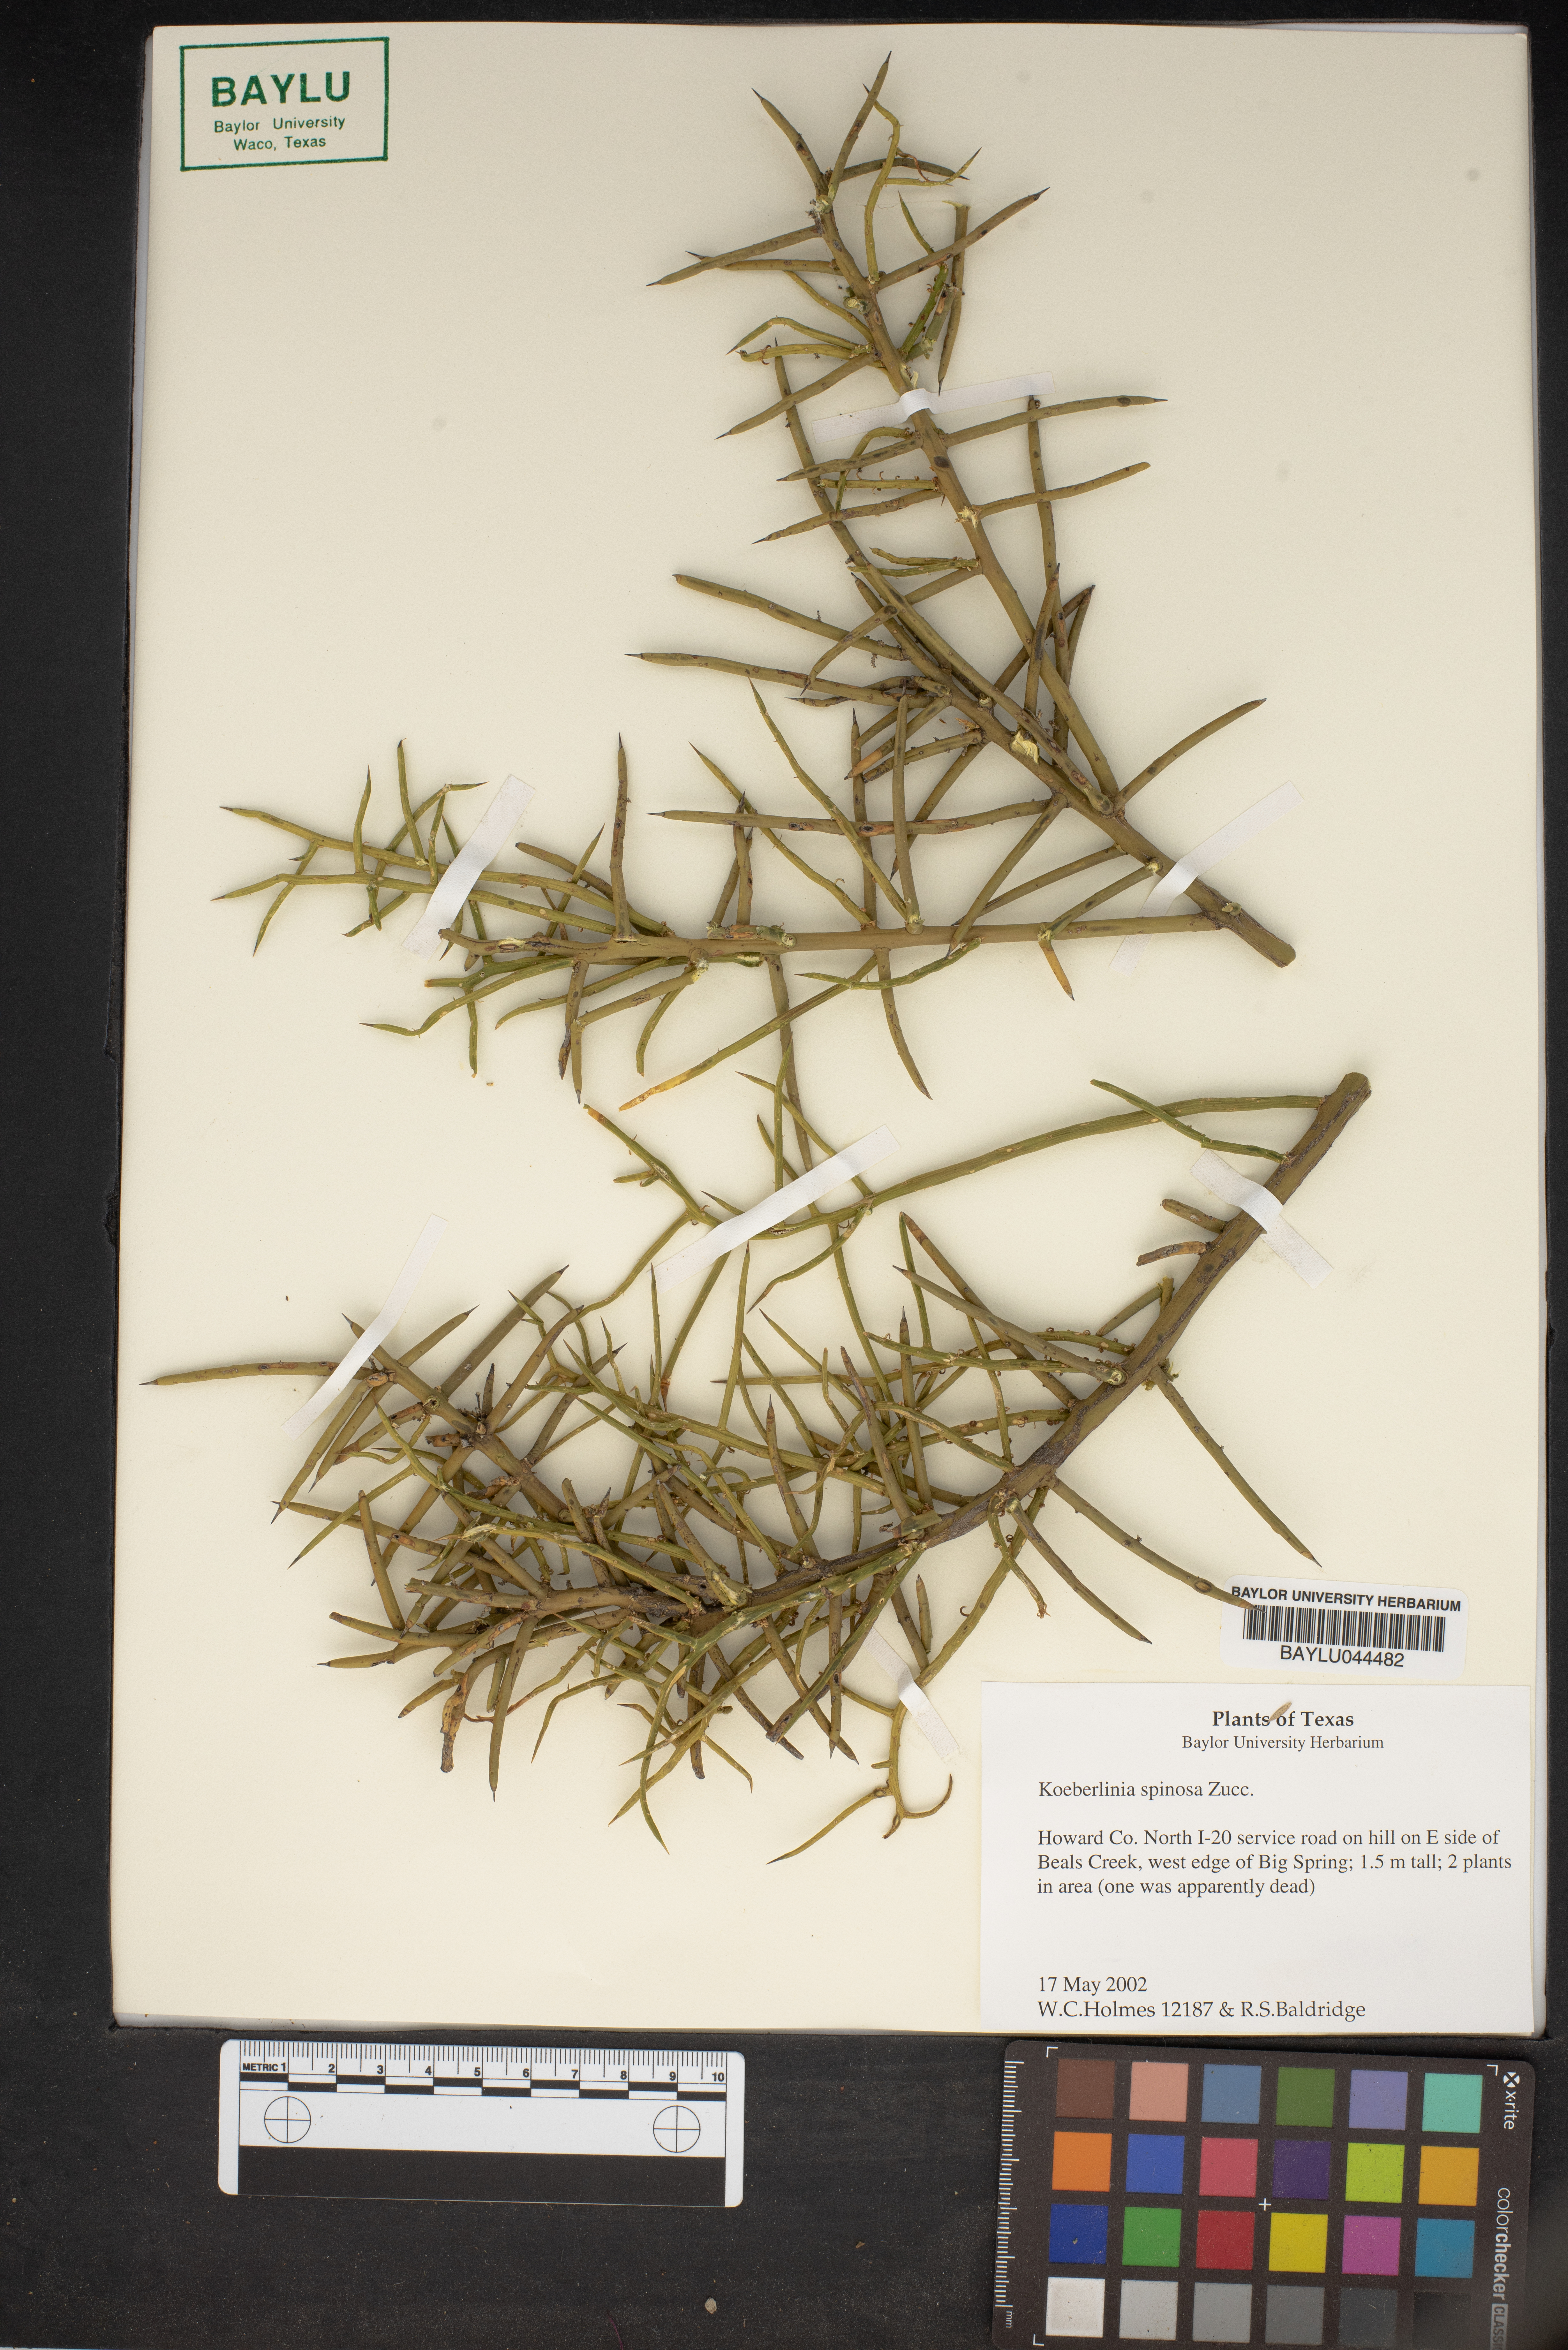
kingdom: Plantae
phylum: Tracheophyta
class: Magnoliopsida
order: Brassicales
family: Koeberliniaceae
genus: Koeberlinia
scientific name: Koeberlinia spinosa
